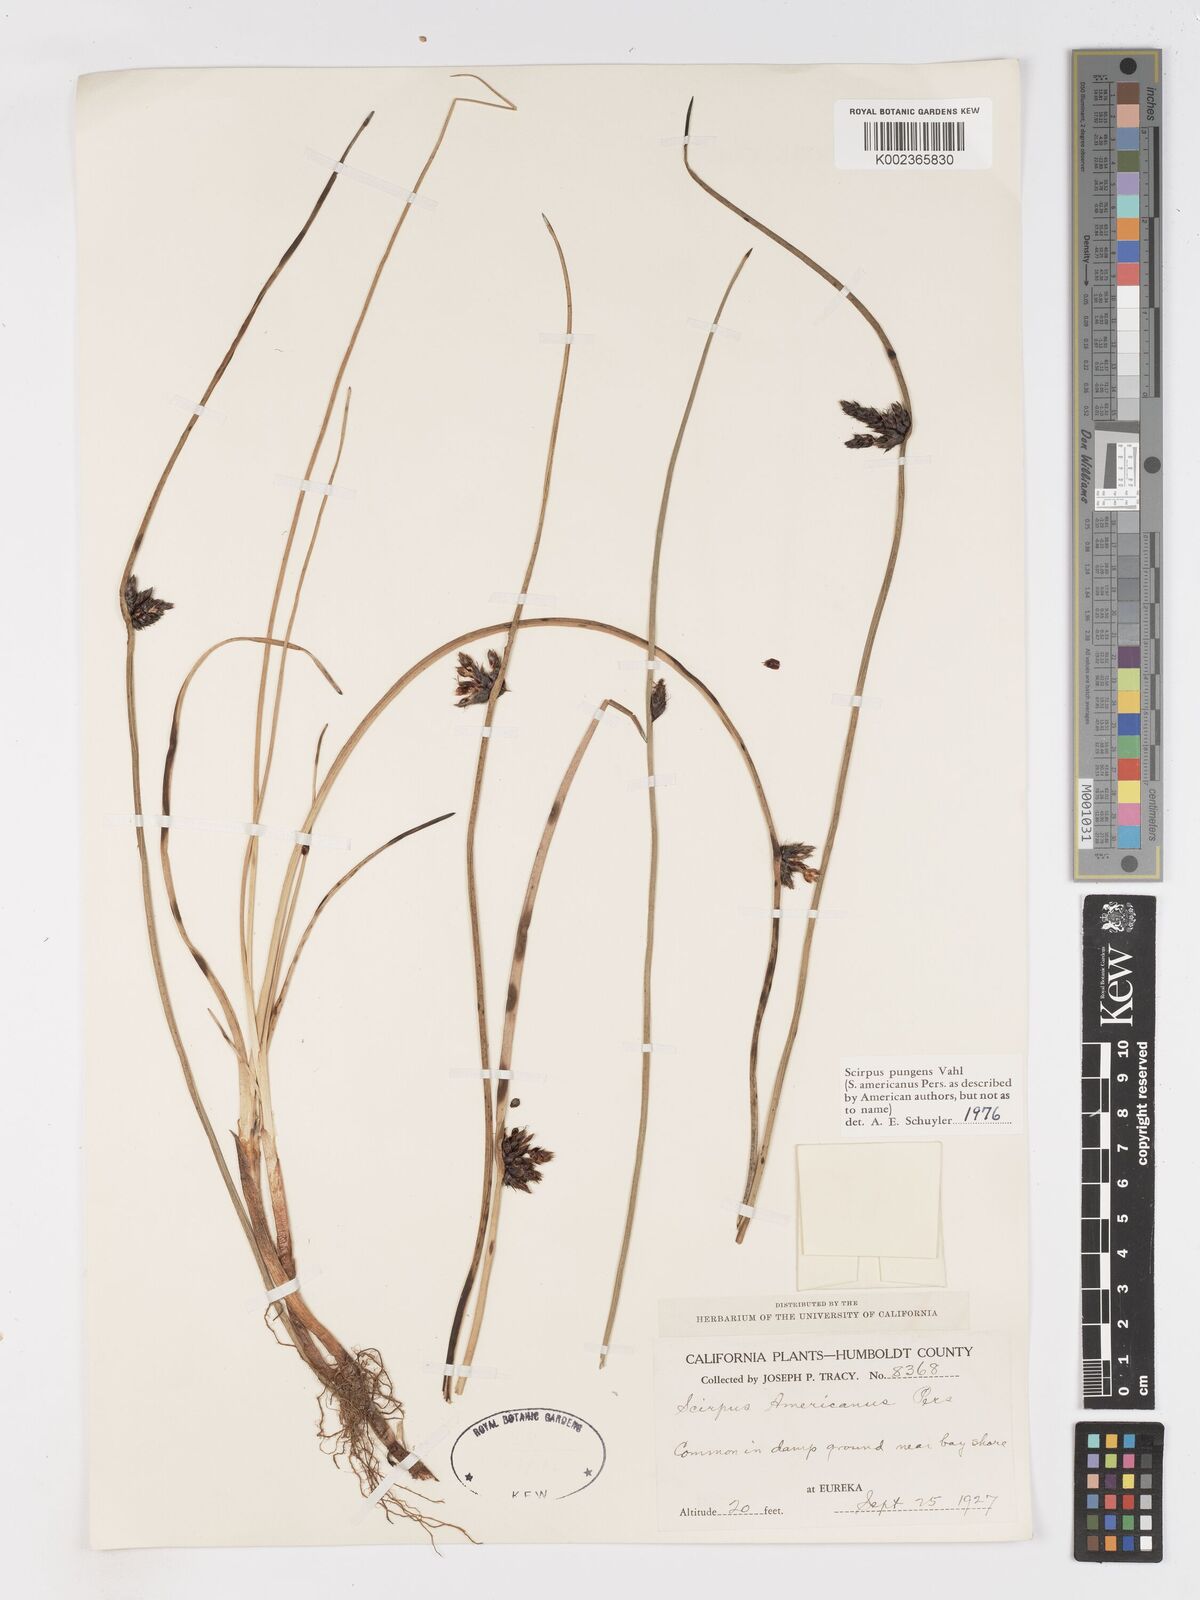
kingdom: Plantae
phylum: Tracheophyta
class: Liliopsida
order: Poales
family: Cyperaceae
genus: Schoenoplectus
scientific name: Schoenoplectus pungens
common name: Sharp club-rush
